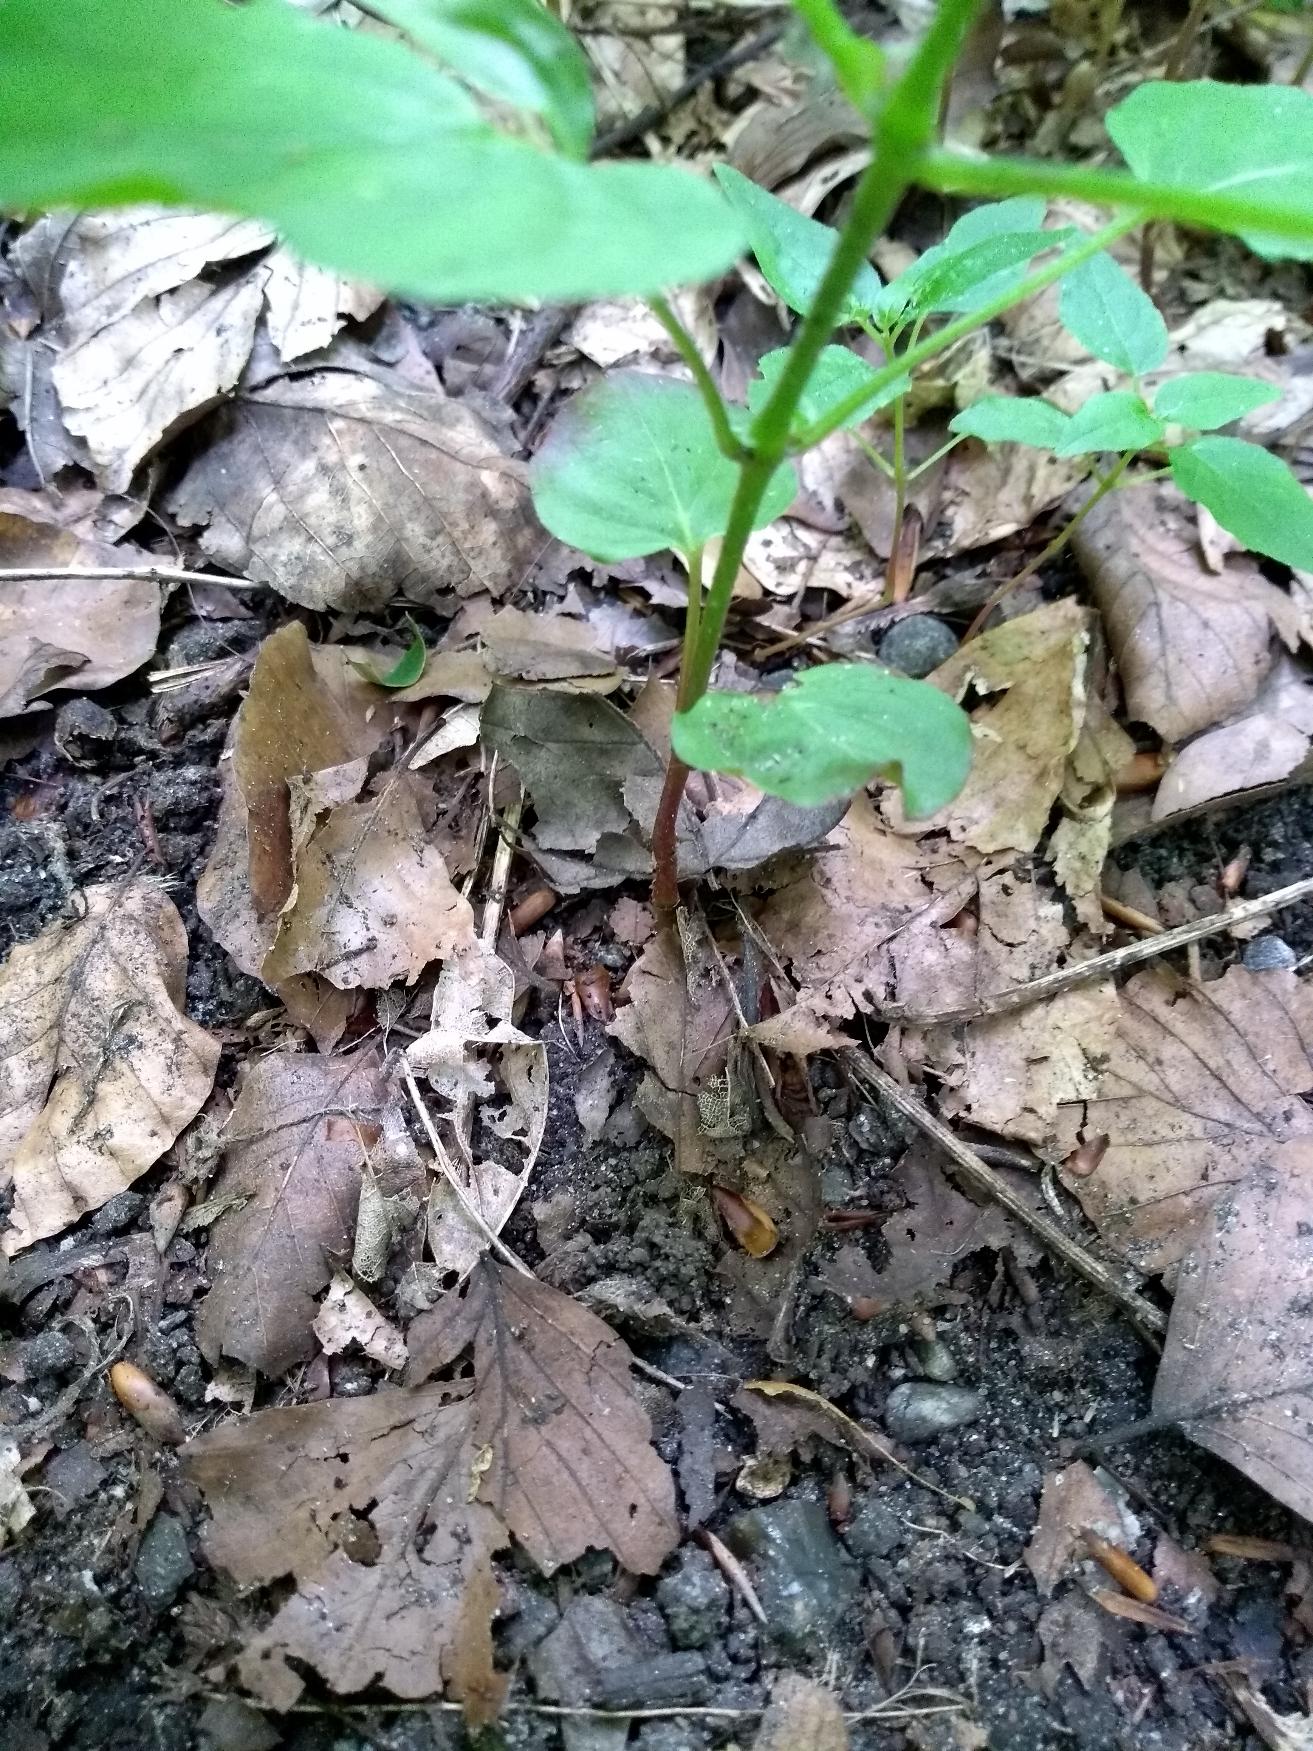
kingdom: Plantae
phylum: Tracheophyta
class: Magnoliopsida
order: Myrtales
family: Onagraceae
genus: Circaea
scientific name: Circaea lutetiana
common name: Dunet steffensurt
